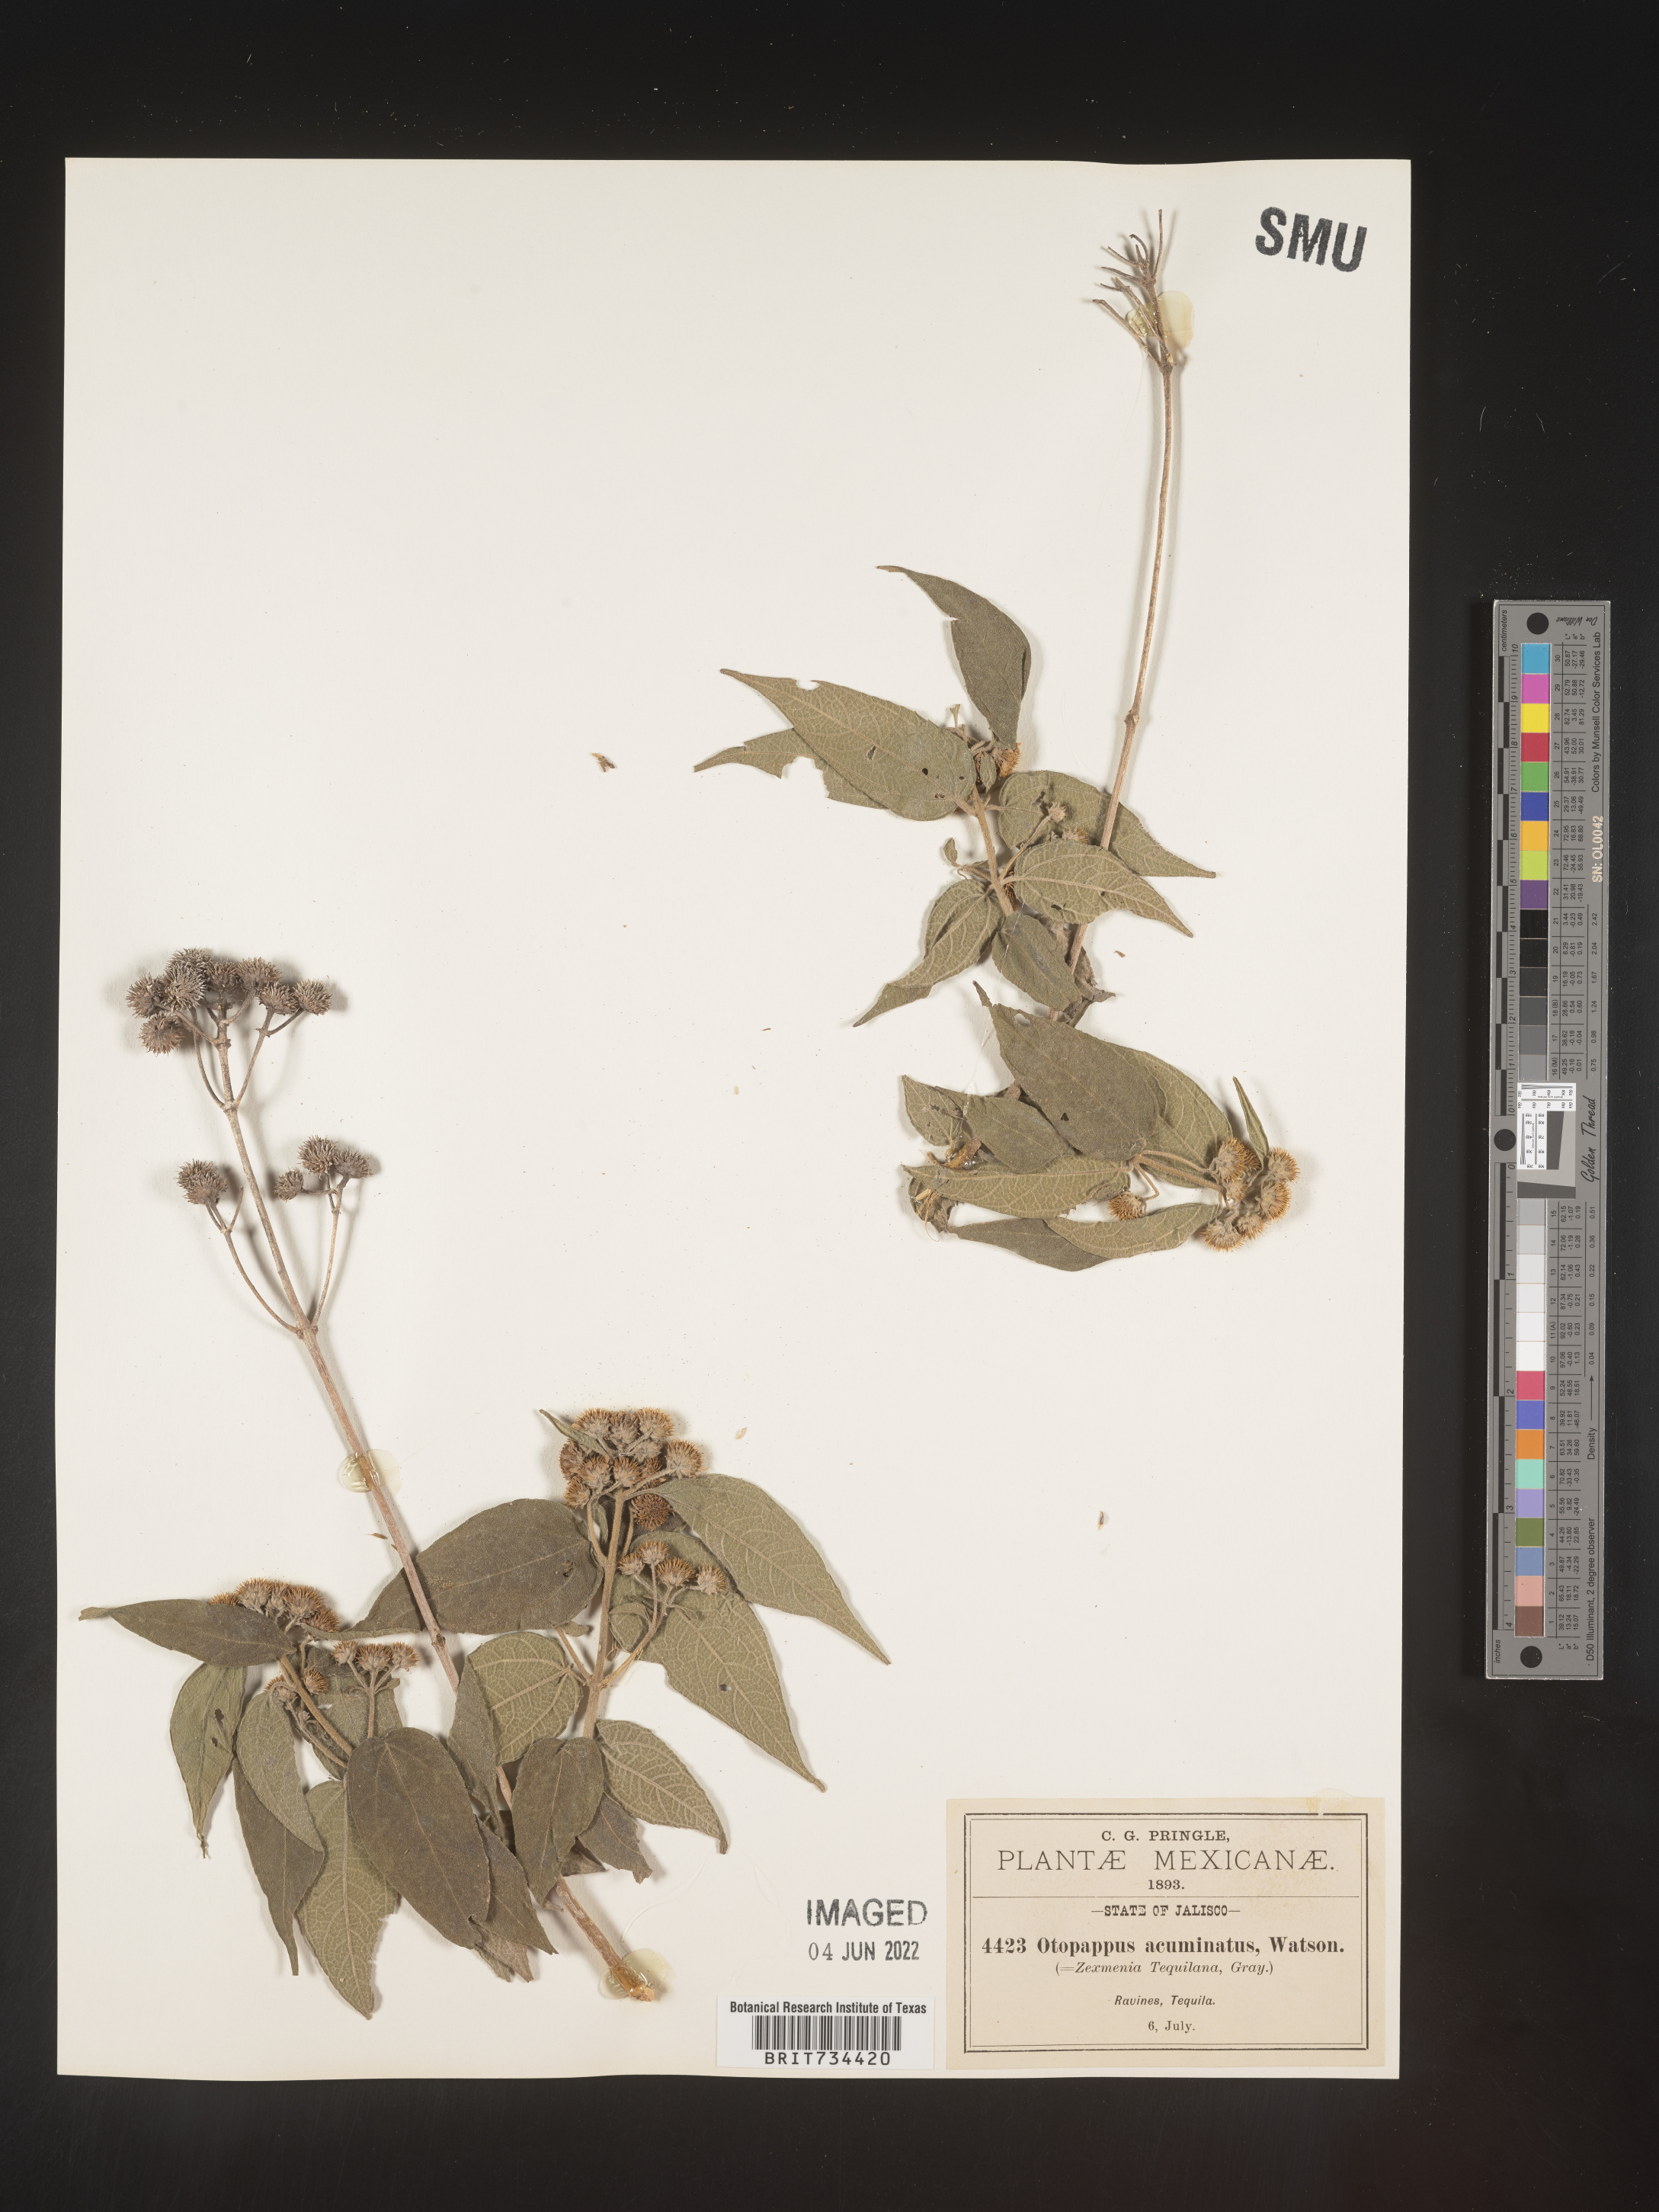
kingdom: Plantae
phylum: Tracheophyta
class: Magnoliopsida
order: Asterales
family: Asteraceae
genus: Otopappus
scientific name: Otopappus
